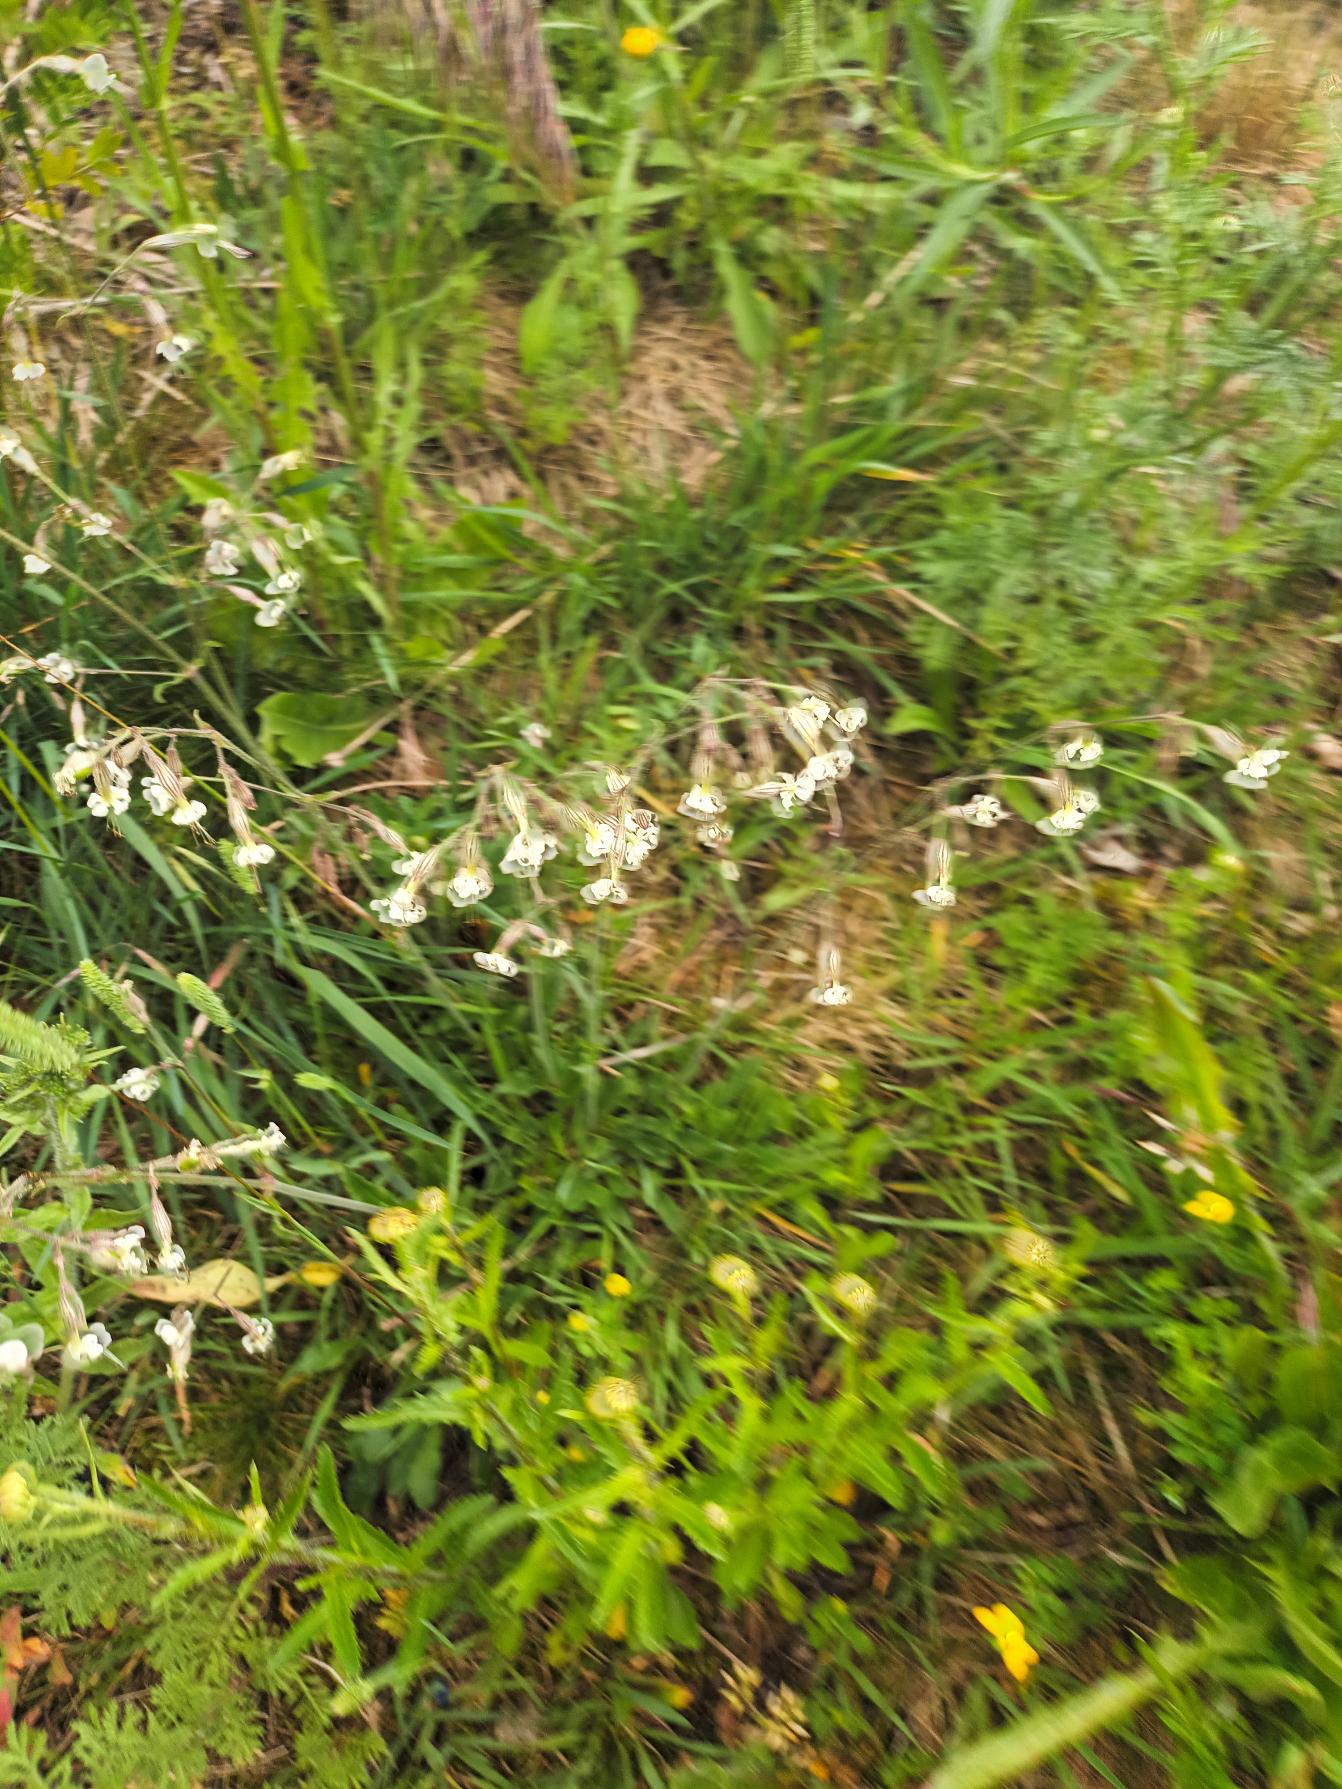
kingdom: Plantae
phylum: Tracheophyta
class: Magnoliopsida
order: Caryophyllales
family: Caryophyllaceae
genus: Silene
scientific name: Silene nutans
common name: Nikkende limurt
